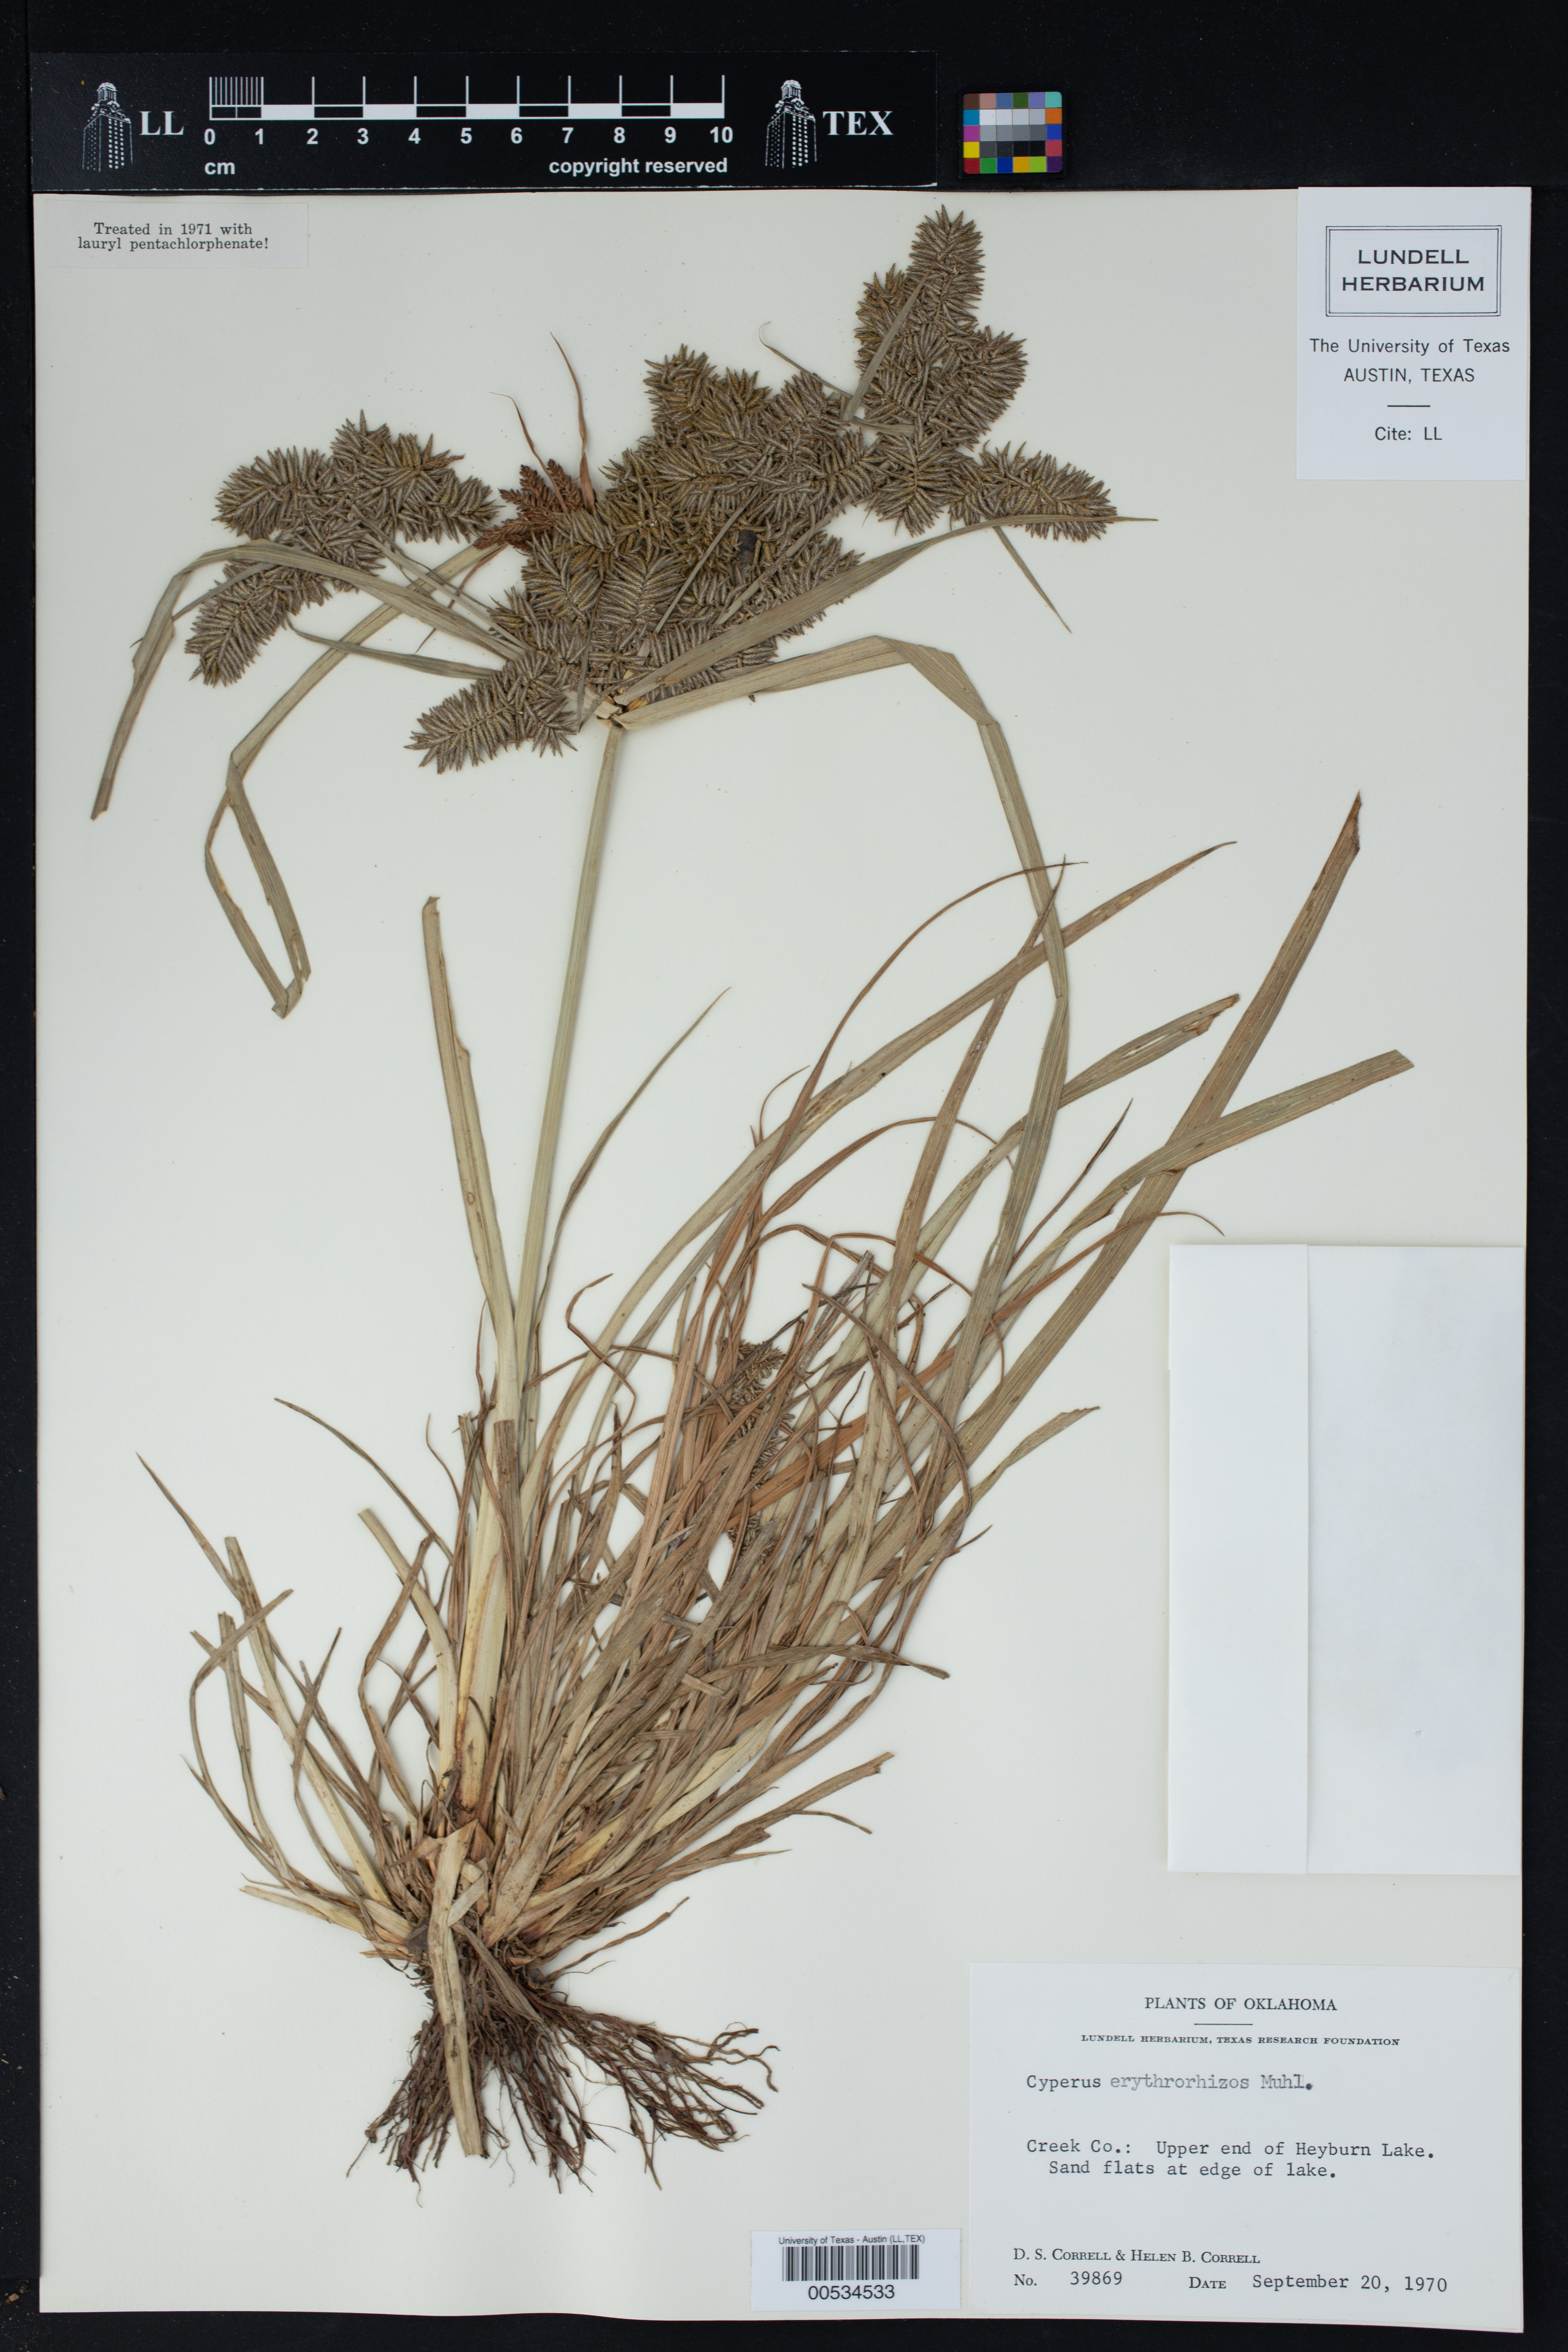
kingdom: Plantae
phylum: Tracheophyta
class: Liliopsida
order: Poales
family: Cyperaceae
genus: Cyperus
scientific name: Cyperus erythrorhizos
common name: Red-root flat sedge
